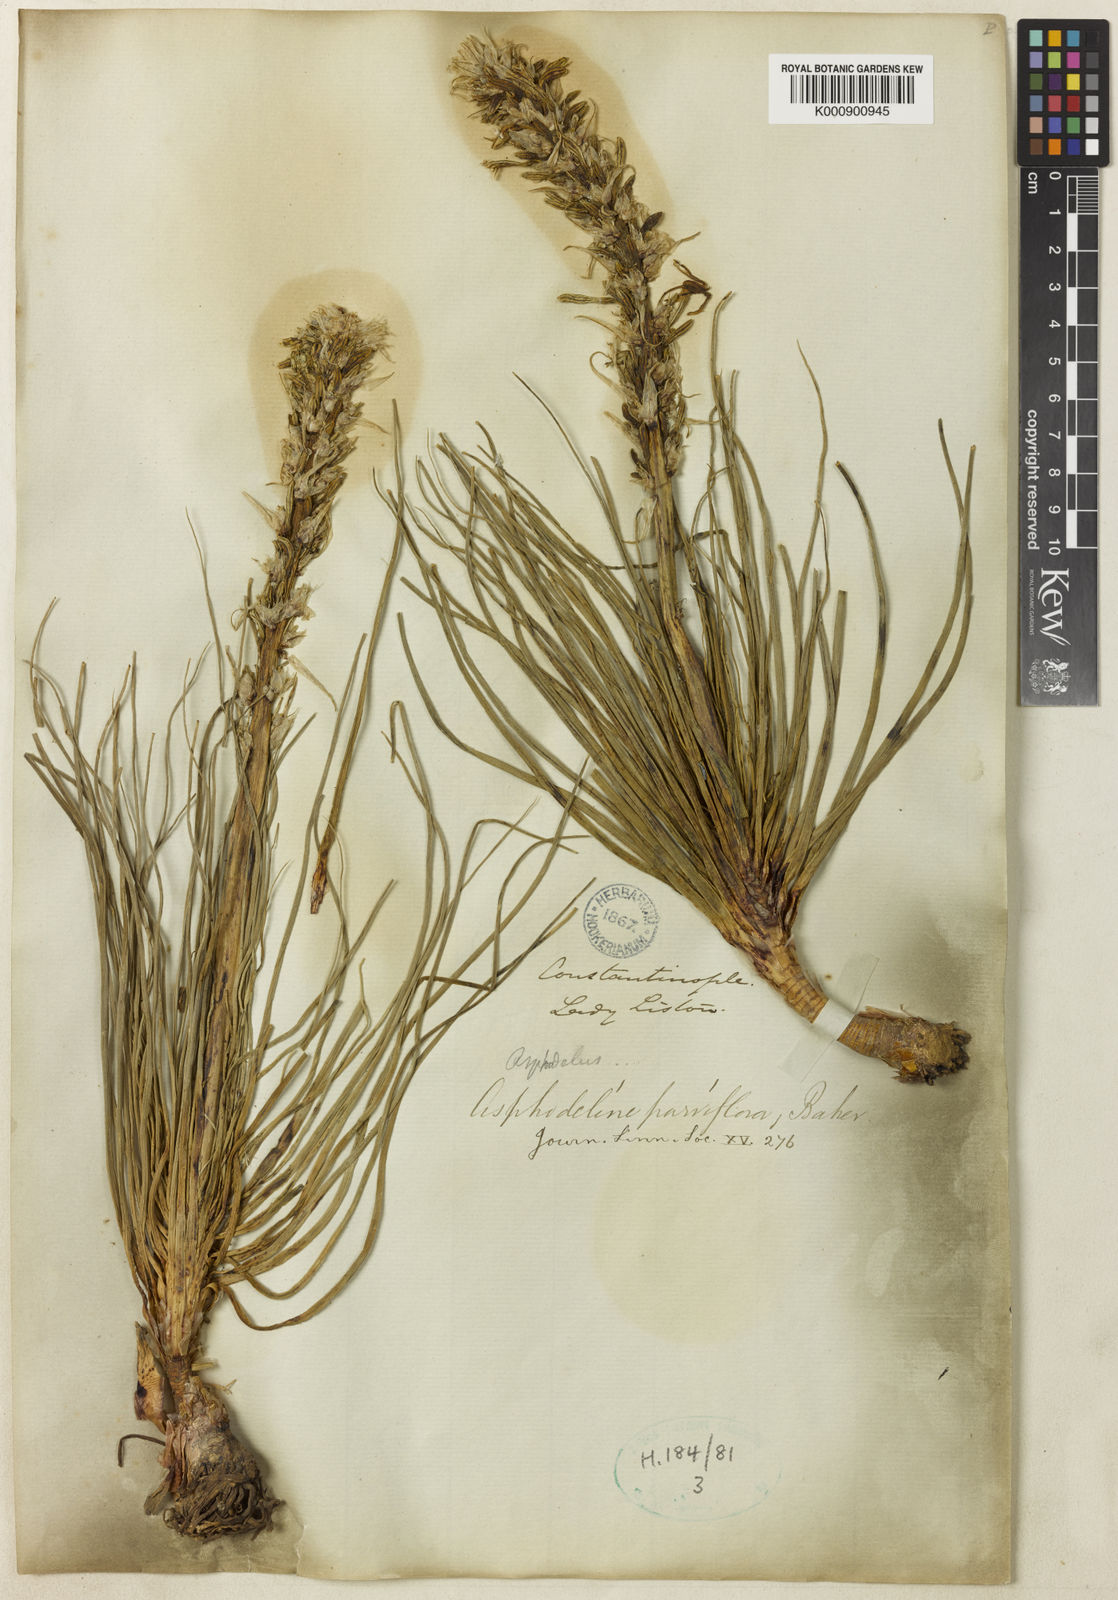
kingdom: Plantae
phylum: Tracheophyta
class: Liliopsida
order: Asparagales
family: Asphodelaceae
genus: Asphodeline
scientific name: Asphodeline taurica
